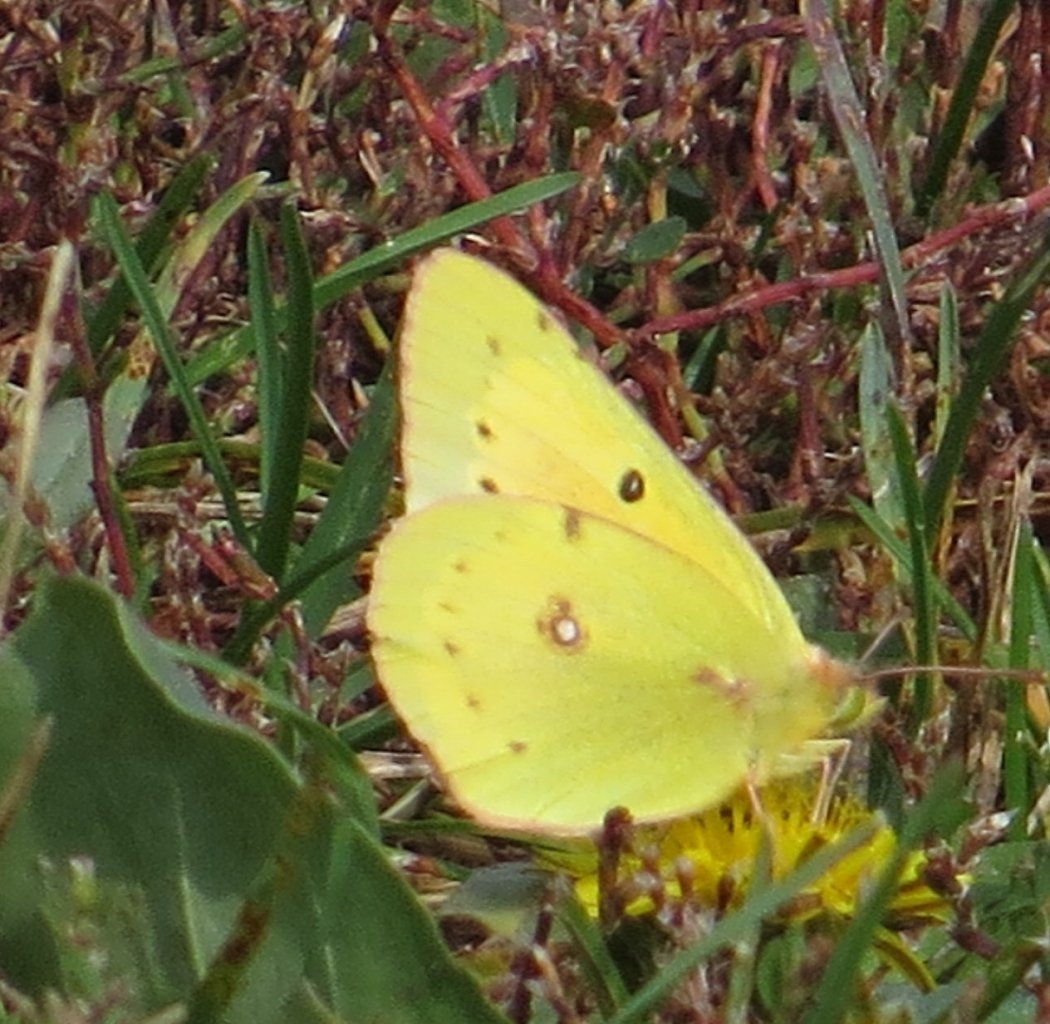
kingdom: Animalia
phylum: Arthropoda
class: Insecta
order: Lepidoptera
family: Pieridae
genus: Colias
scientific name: Colias eurytheme
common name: Orange Sulphur
